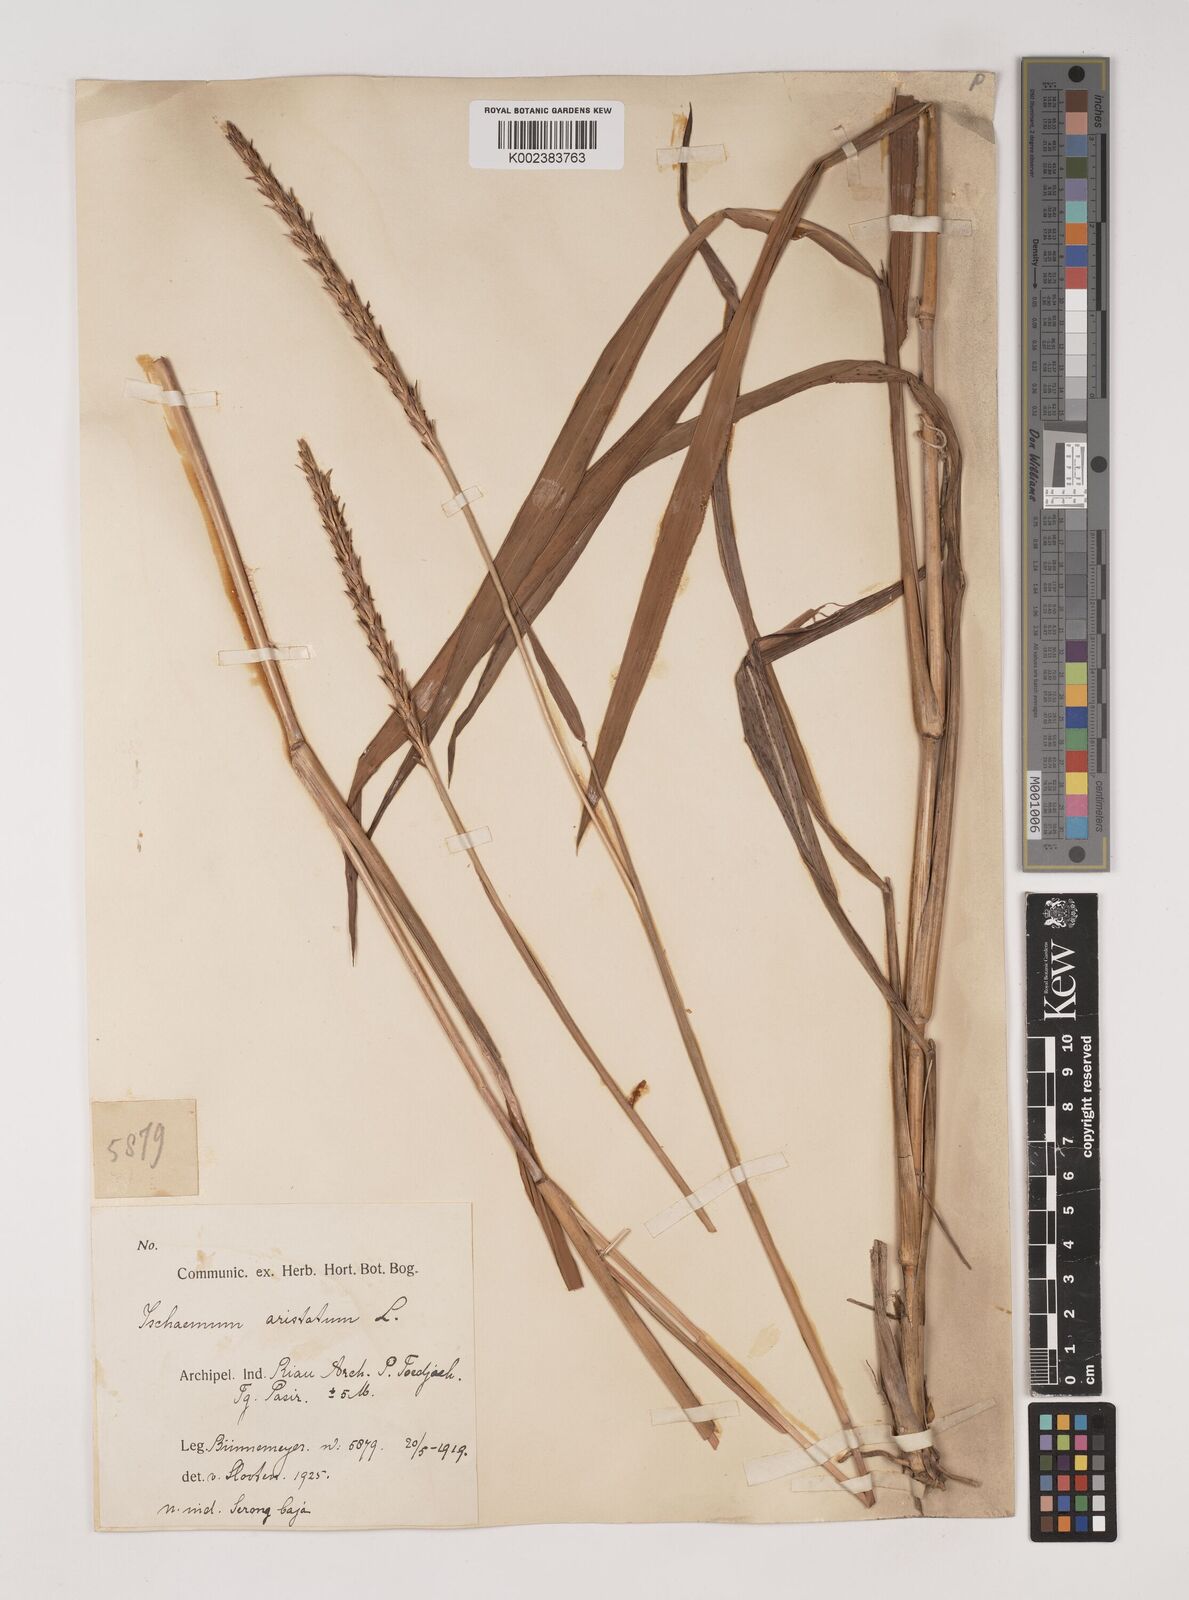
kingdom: Plantae
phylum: Tracheophyta
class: Liliopsida
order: Poales
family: Poaceae
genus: Ischaemum
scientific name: Ischaemum barbatum
